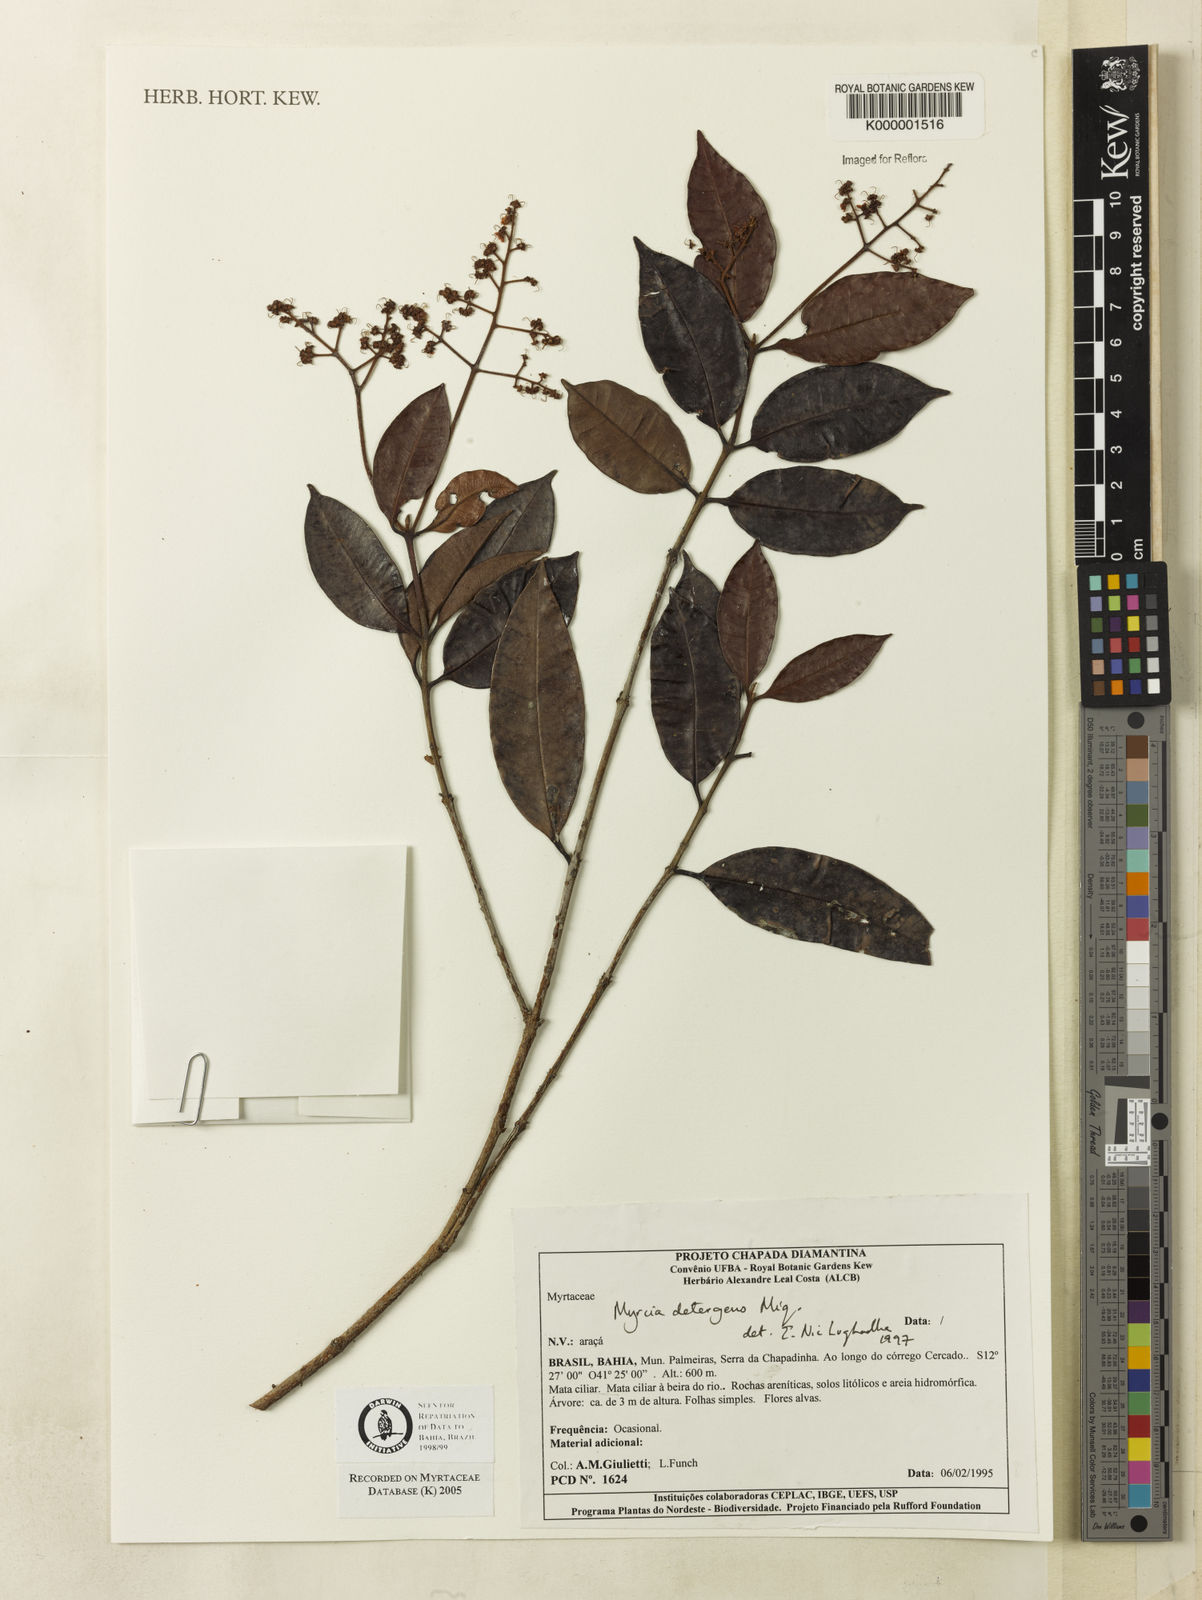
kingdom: Plantae
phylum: Tracheophyta
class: Magnoliopsida
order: Myrtales
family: Myrtaceae
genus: Myrcia
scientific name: Myrcia amazonica
